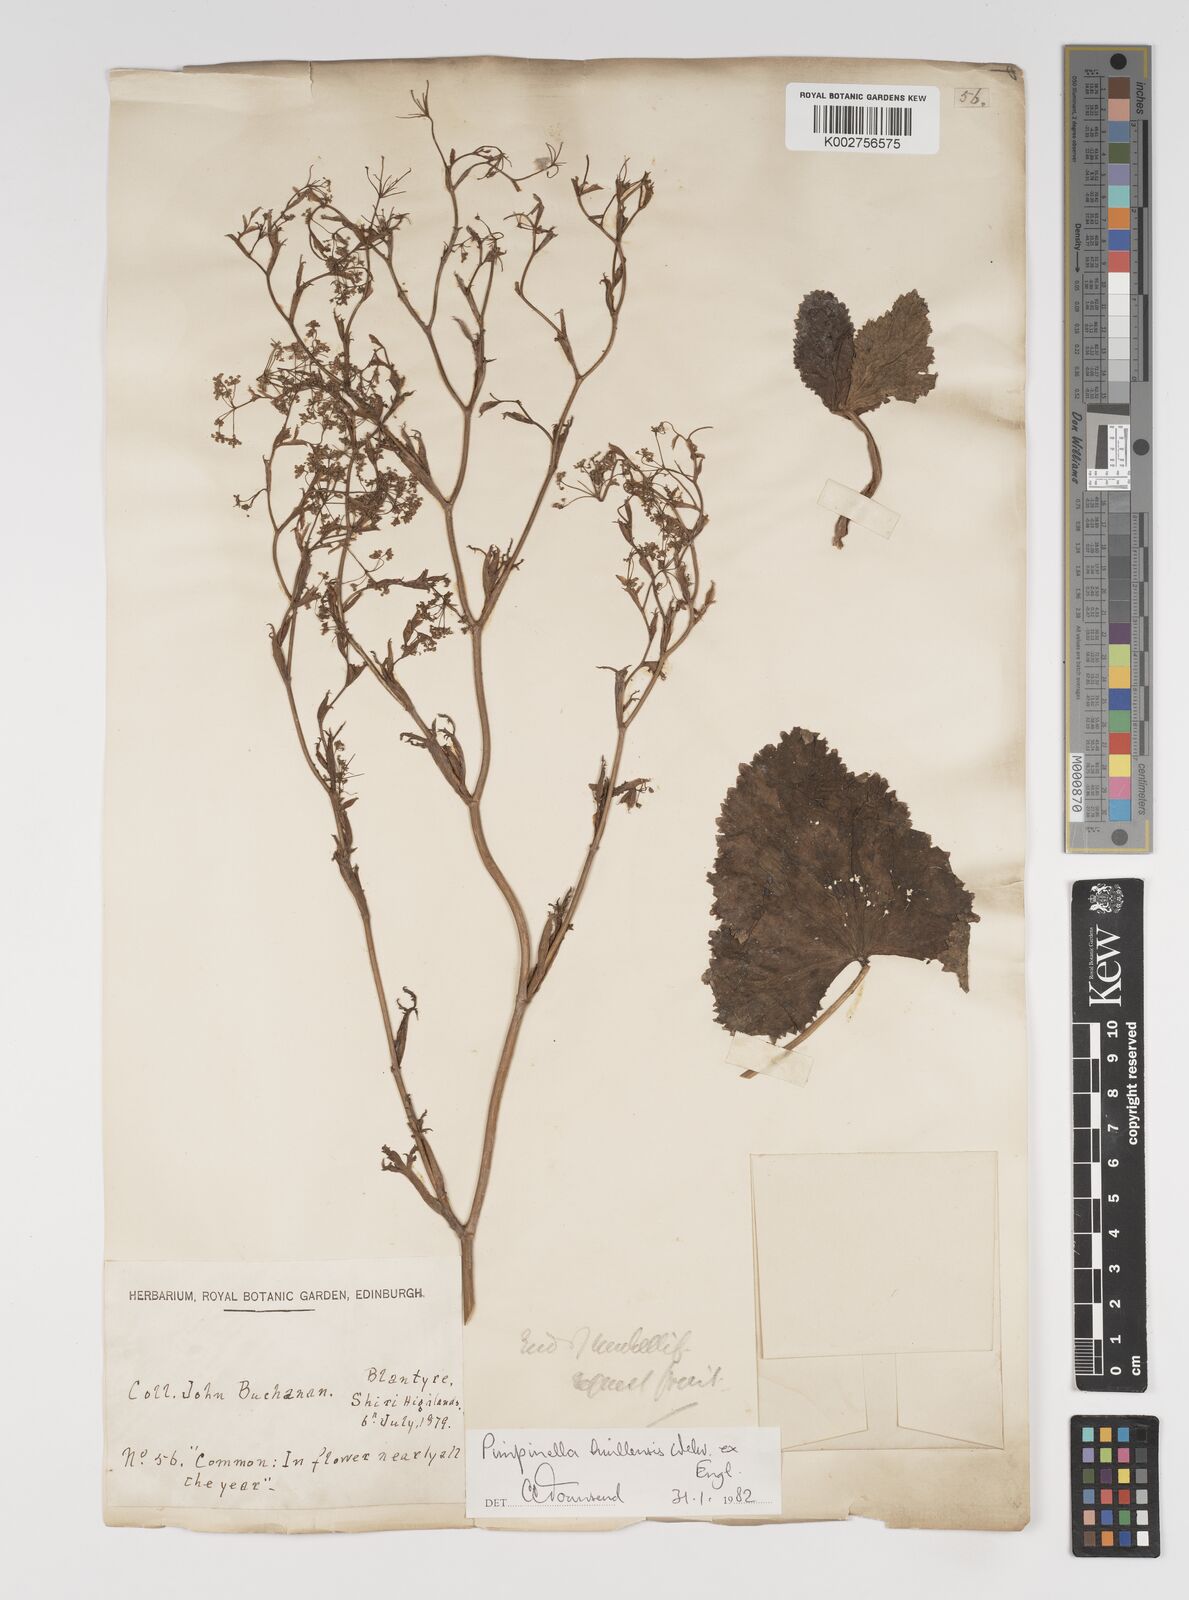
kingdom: Plantae
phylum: Tracheophyta
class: Magnoliopsida
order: Apiales
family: Apiaceae
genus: Pimpinella
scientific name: Pimpinella huillensis
